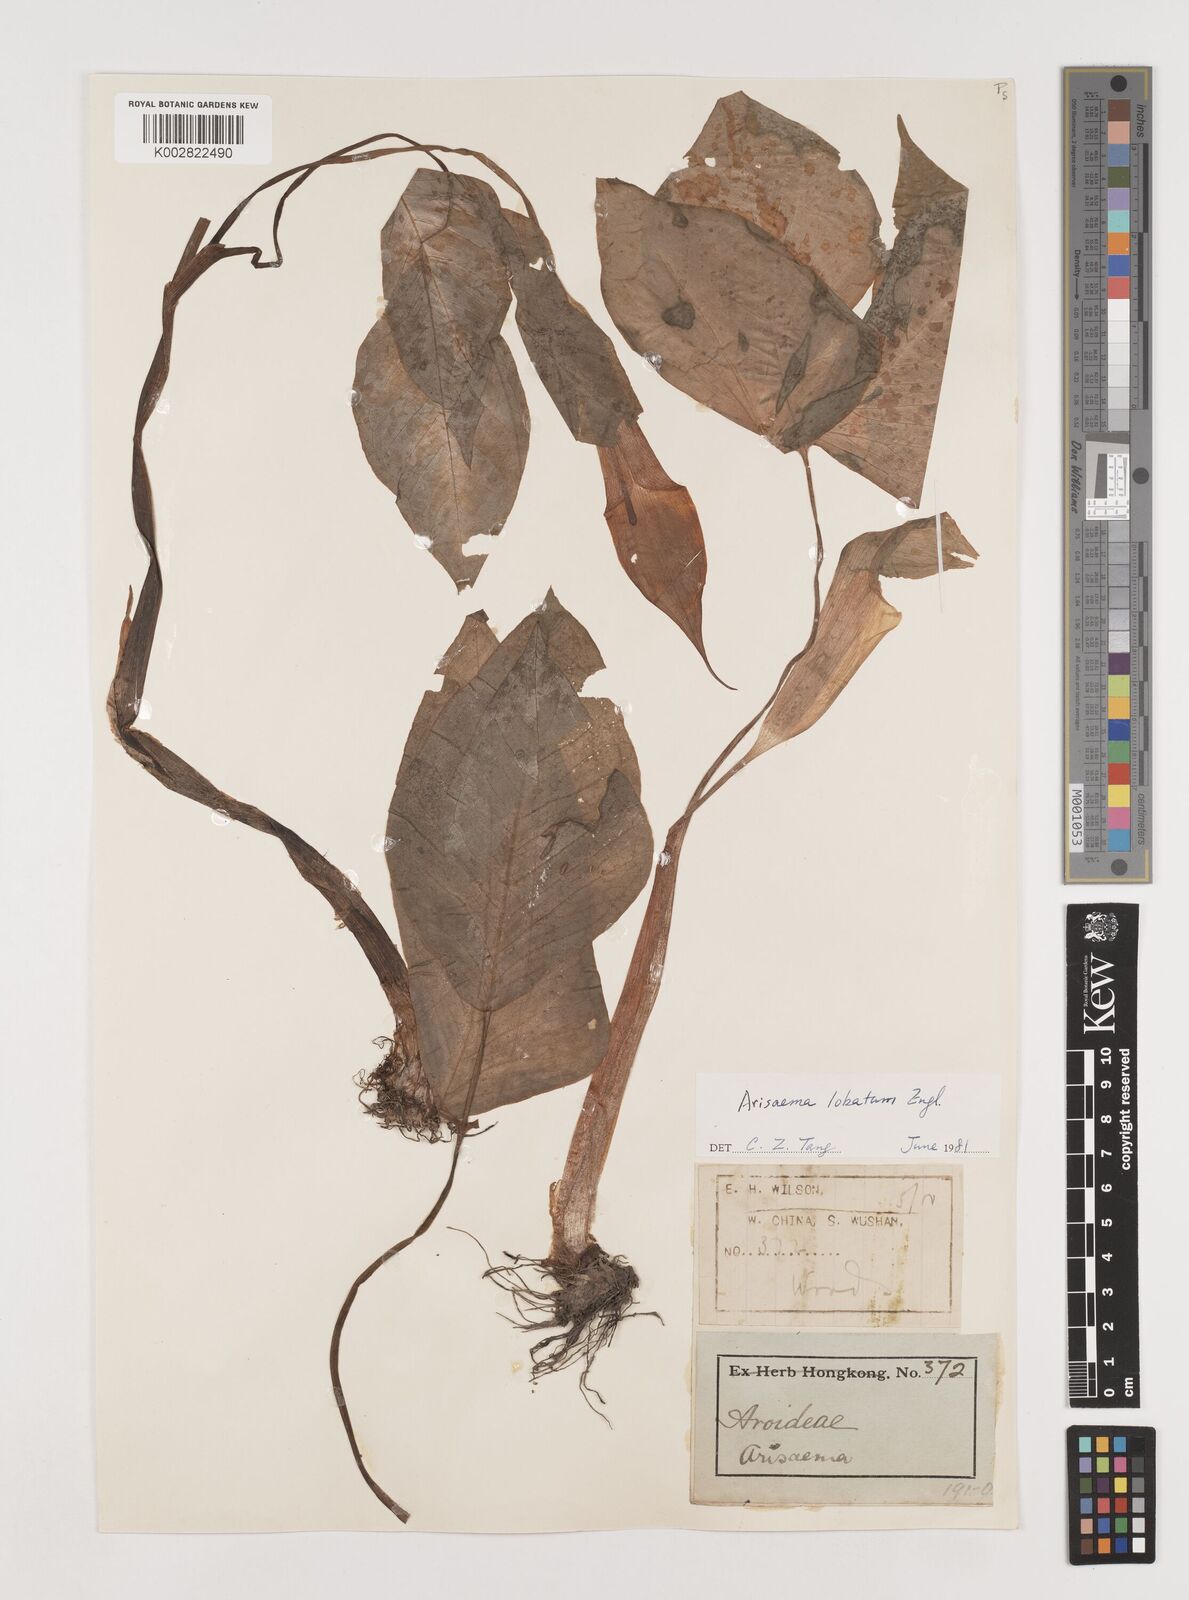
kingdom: Plantae
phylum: Tracheophyta
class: Liliopsida
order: Alismatales
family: Araceae
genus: Arisaema
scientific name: Arisaema lobatum
